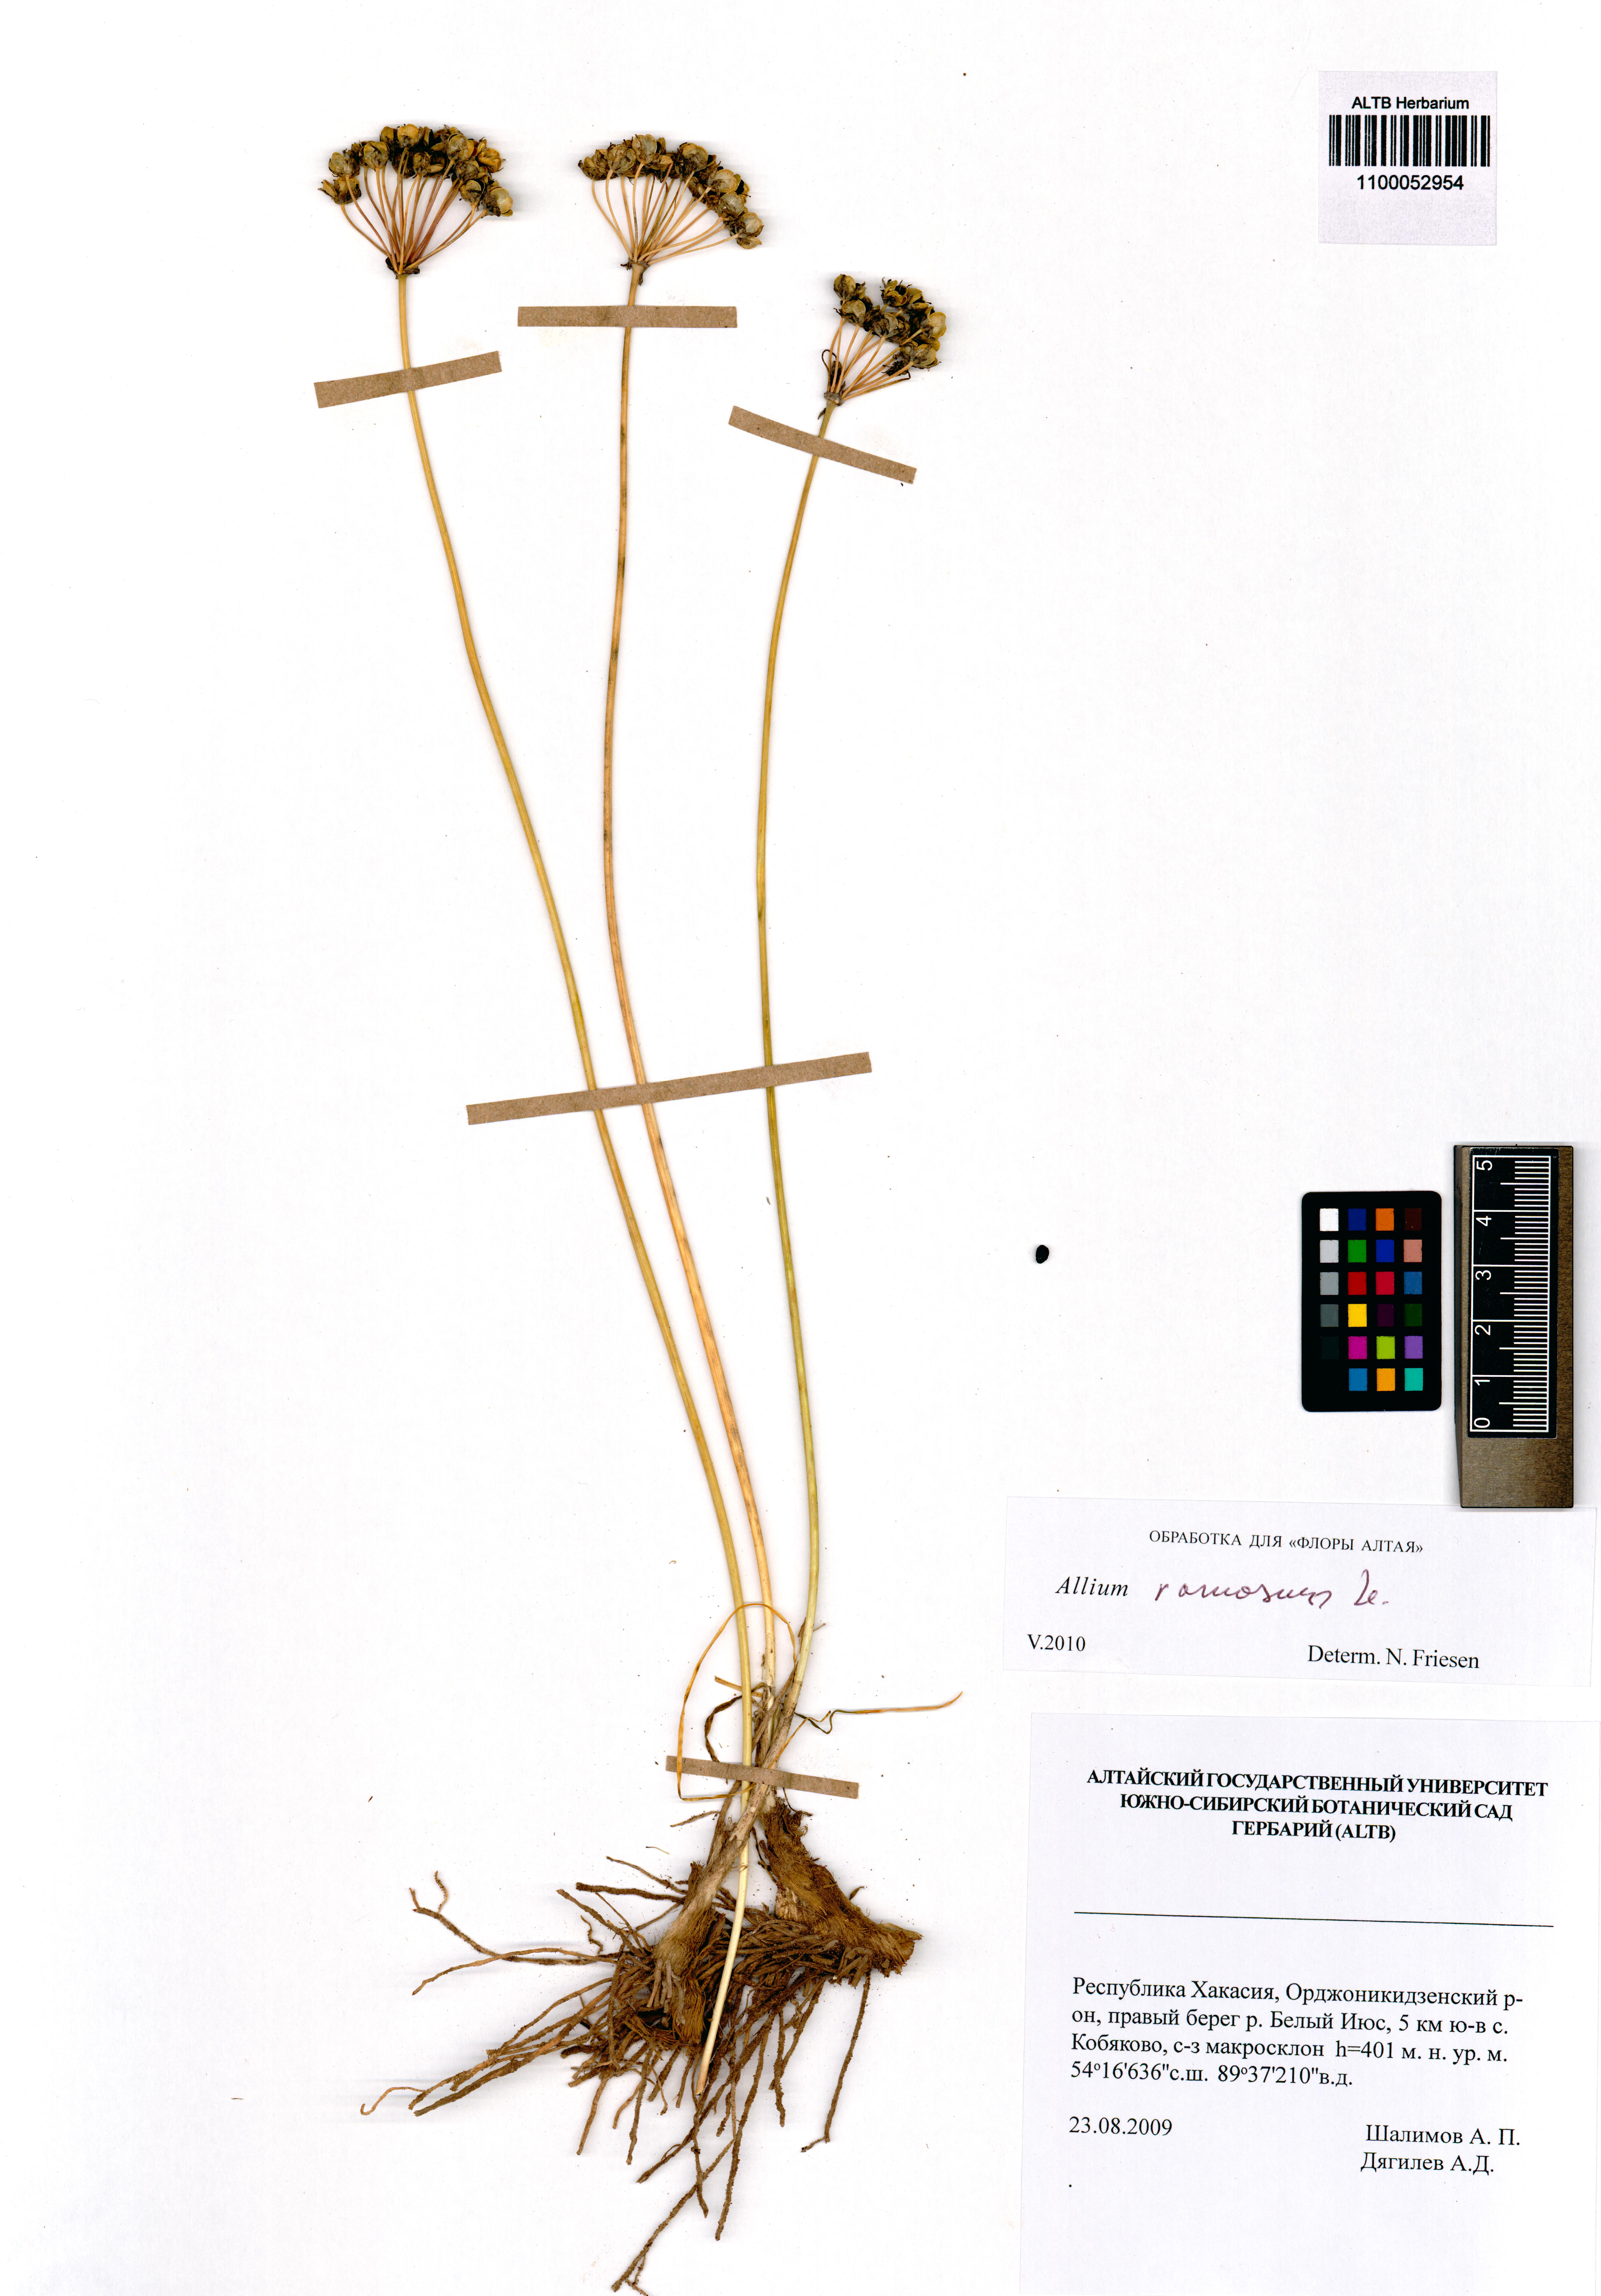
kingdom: Plantae
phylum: Tracheophyta
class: Liliopsida
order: Asparagales
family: Amaryllidaceae
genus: Allium
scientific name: Allium ramosum
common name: Fragrant garlic
